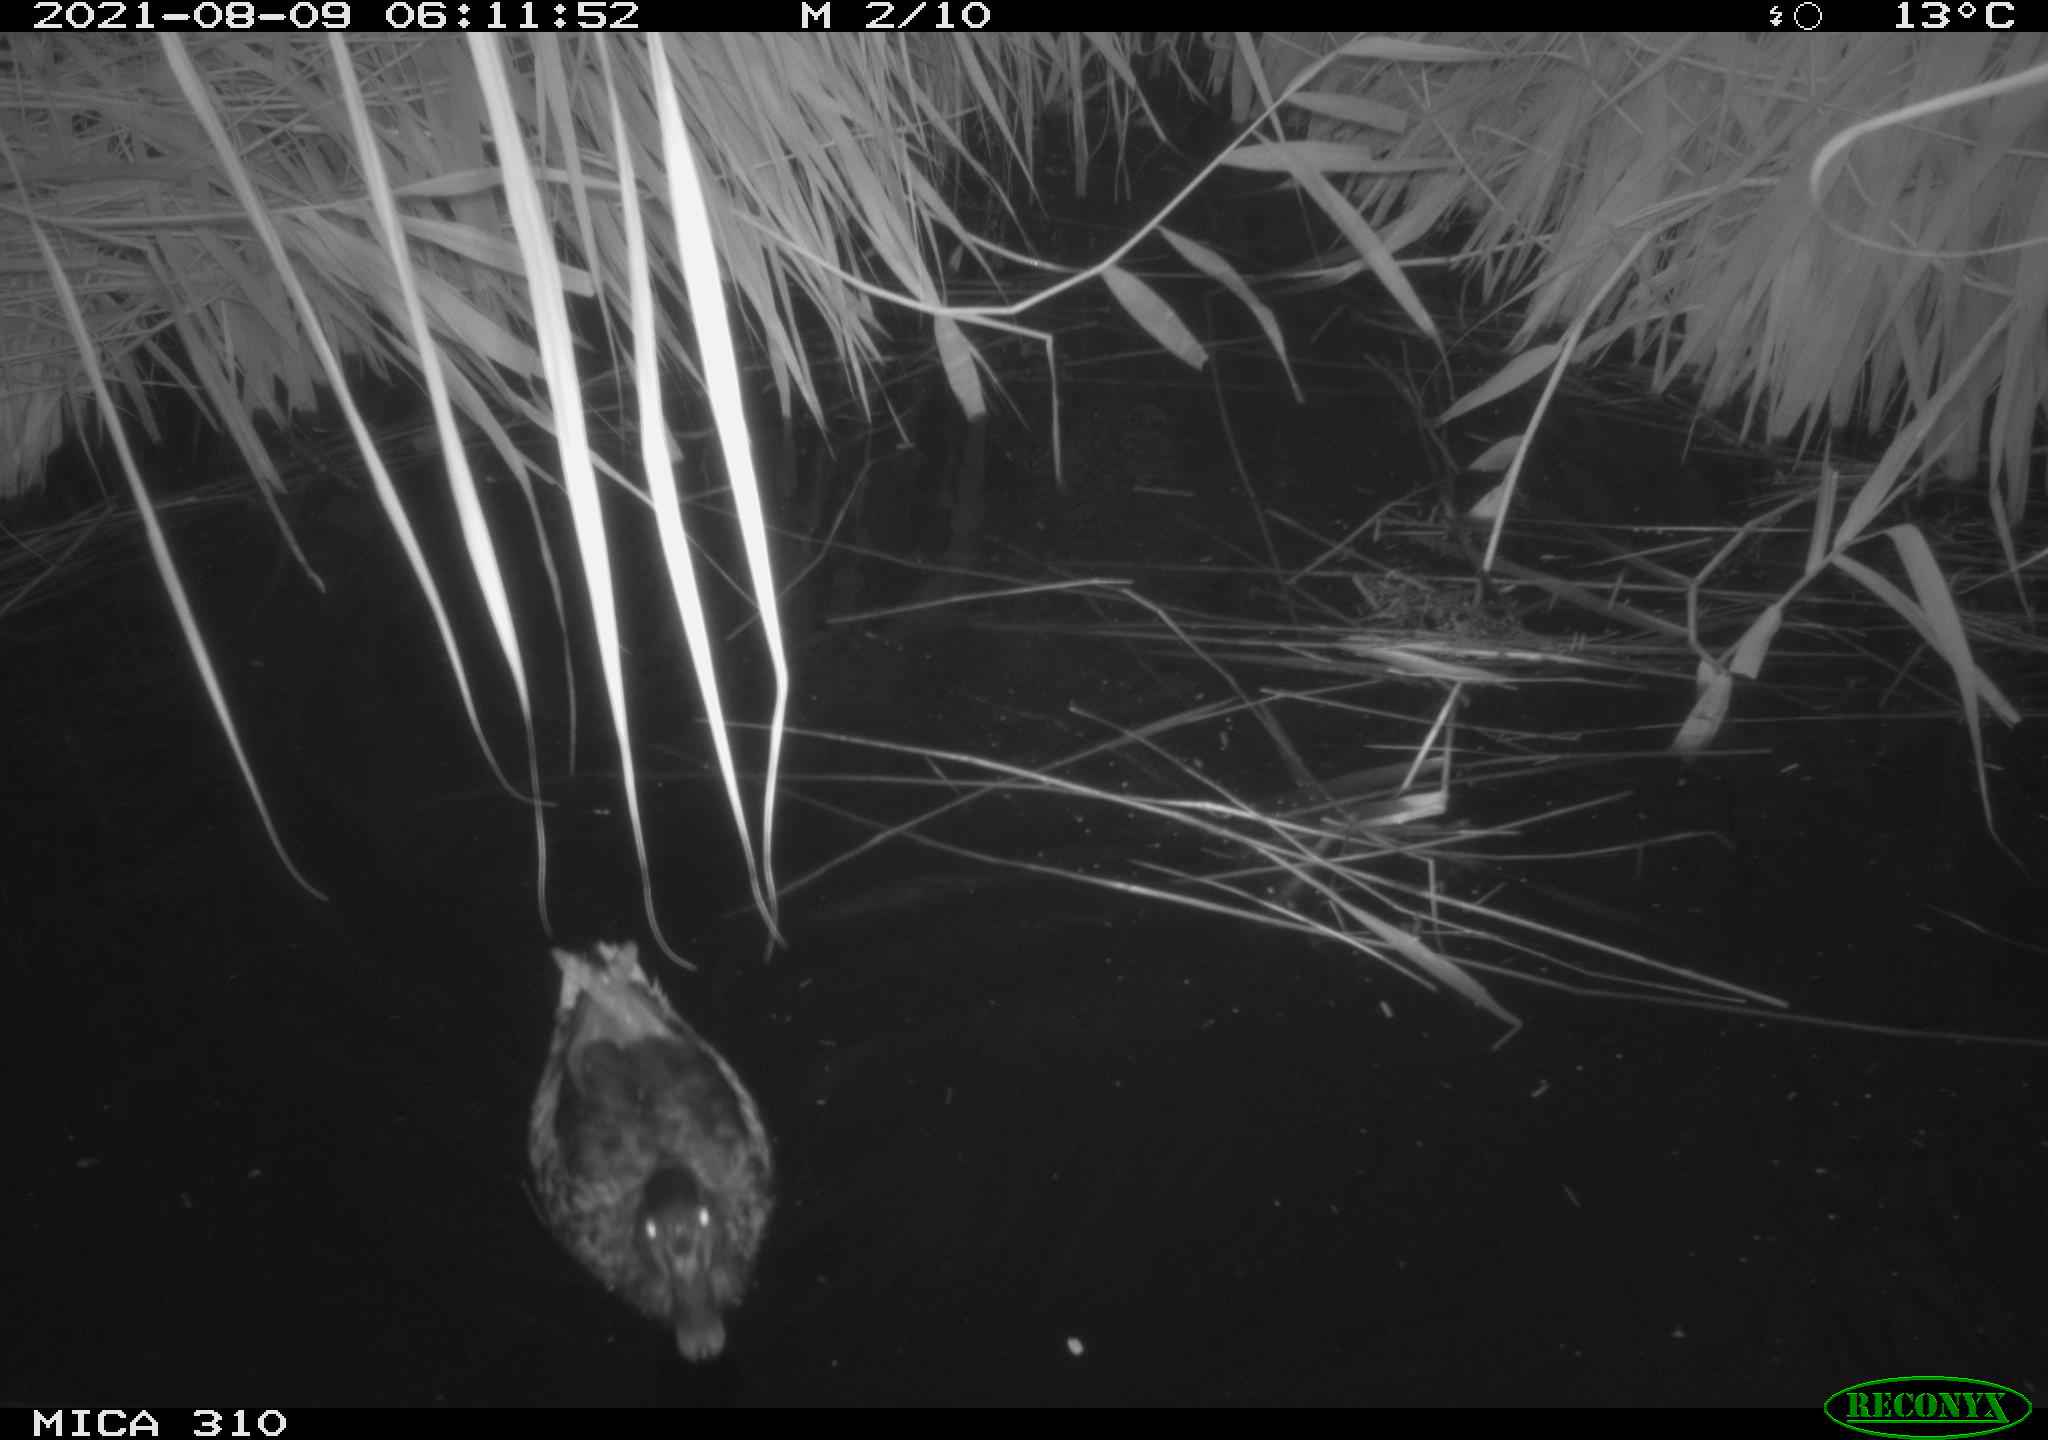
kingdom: Animalia
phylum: Chordata
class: Aves
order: Anseriformes
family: Anatidae
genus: Anas
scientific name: Anas platyrhynchos
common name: Mallard
